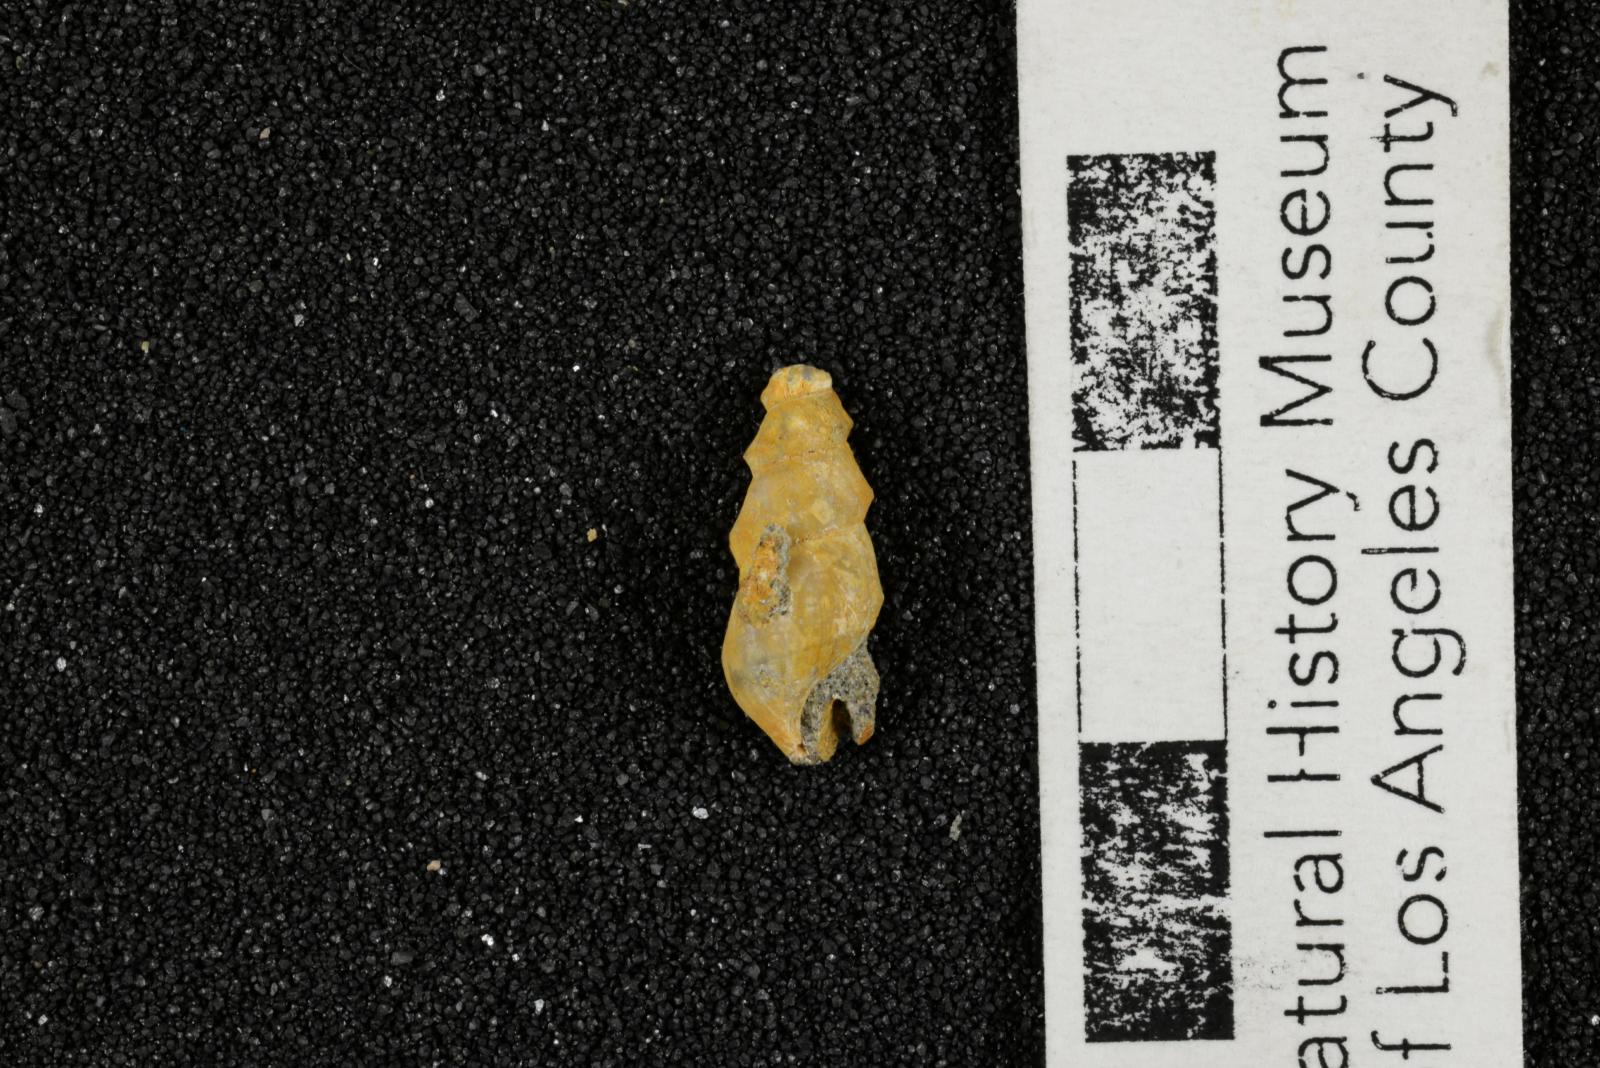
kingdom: Animalia
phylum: Mollusca
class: Gastropoda
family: Potamididae
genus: Potamides
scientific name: Potamides tenuis
